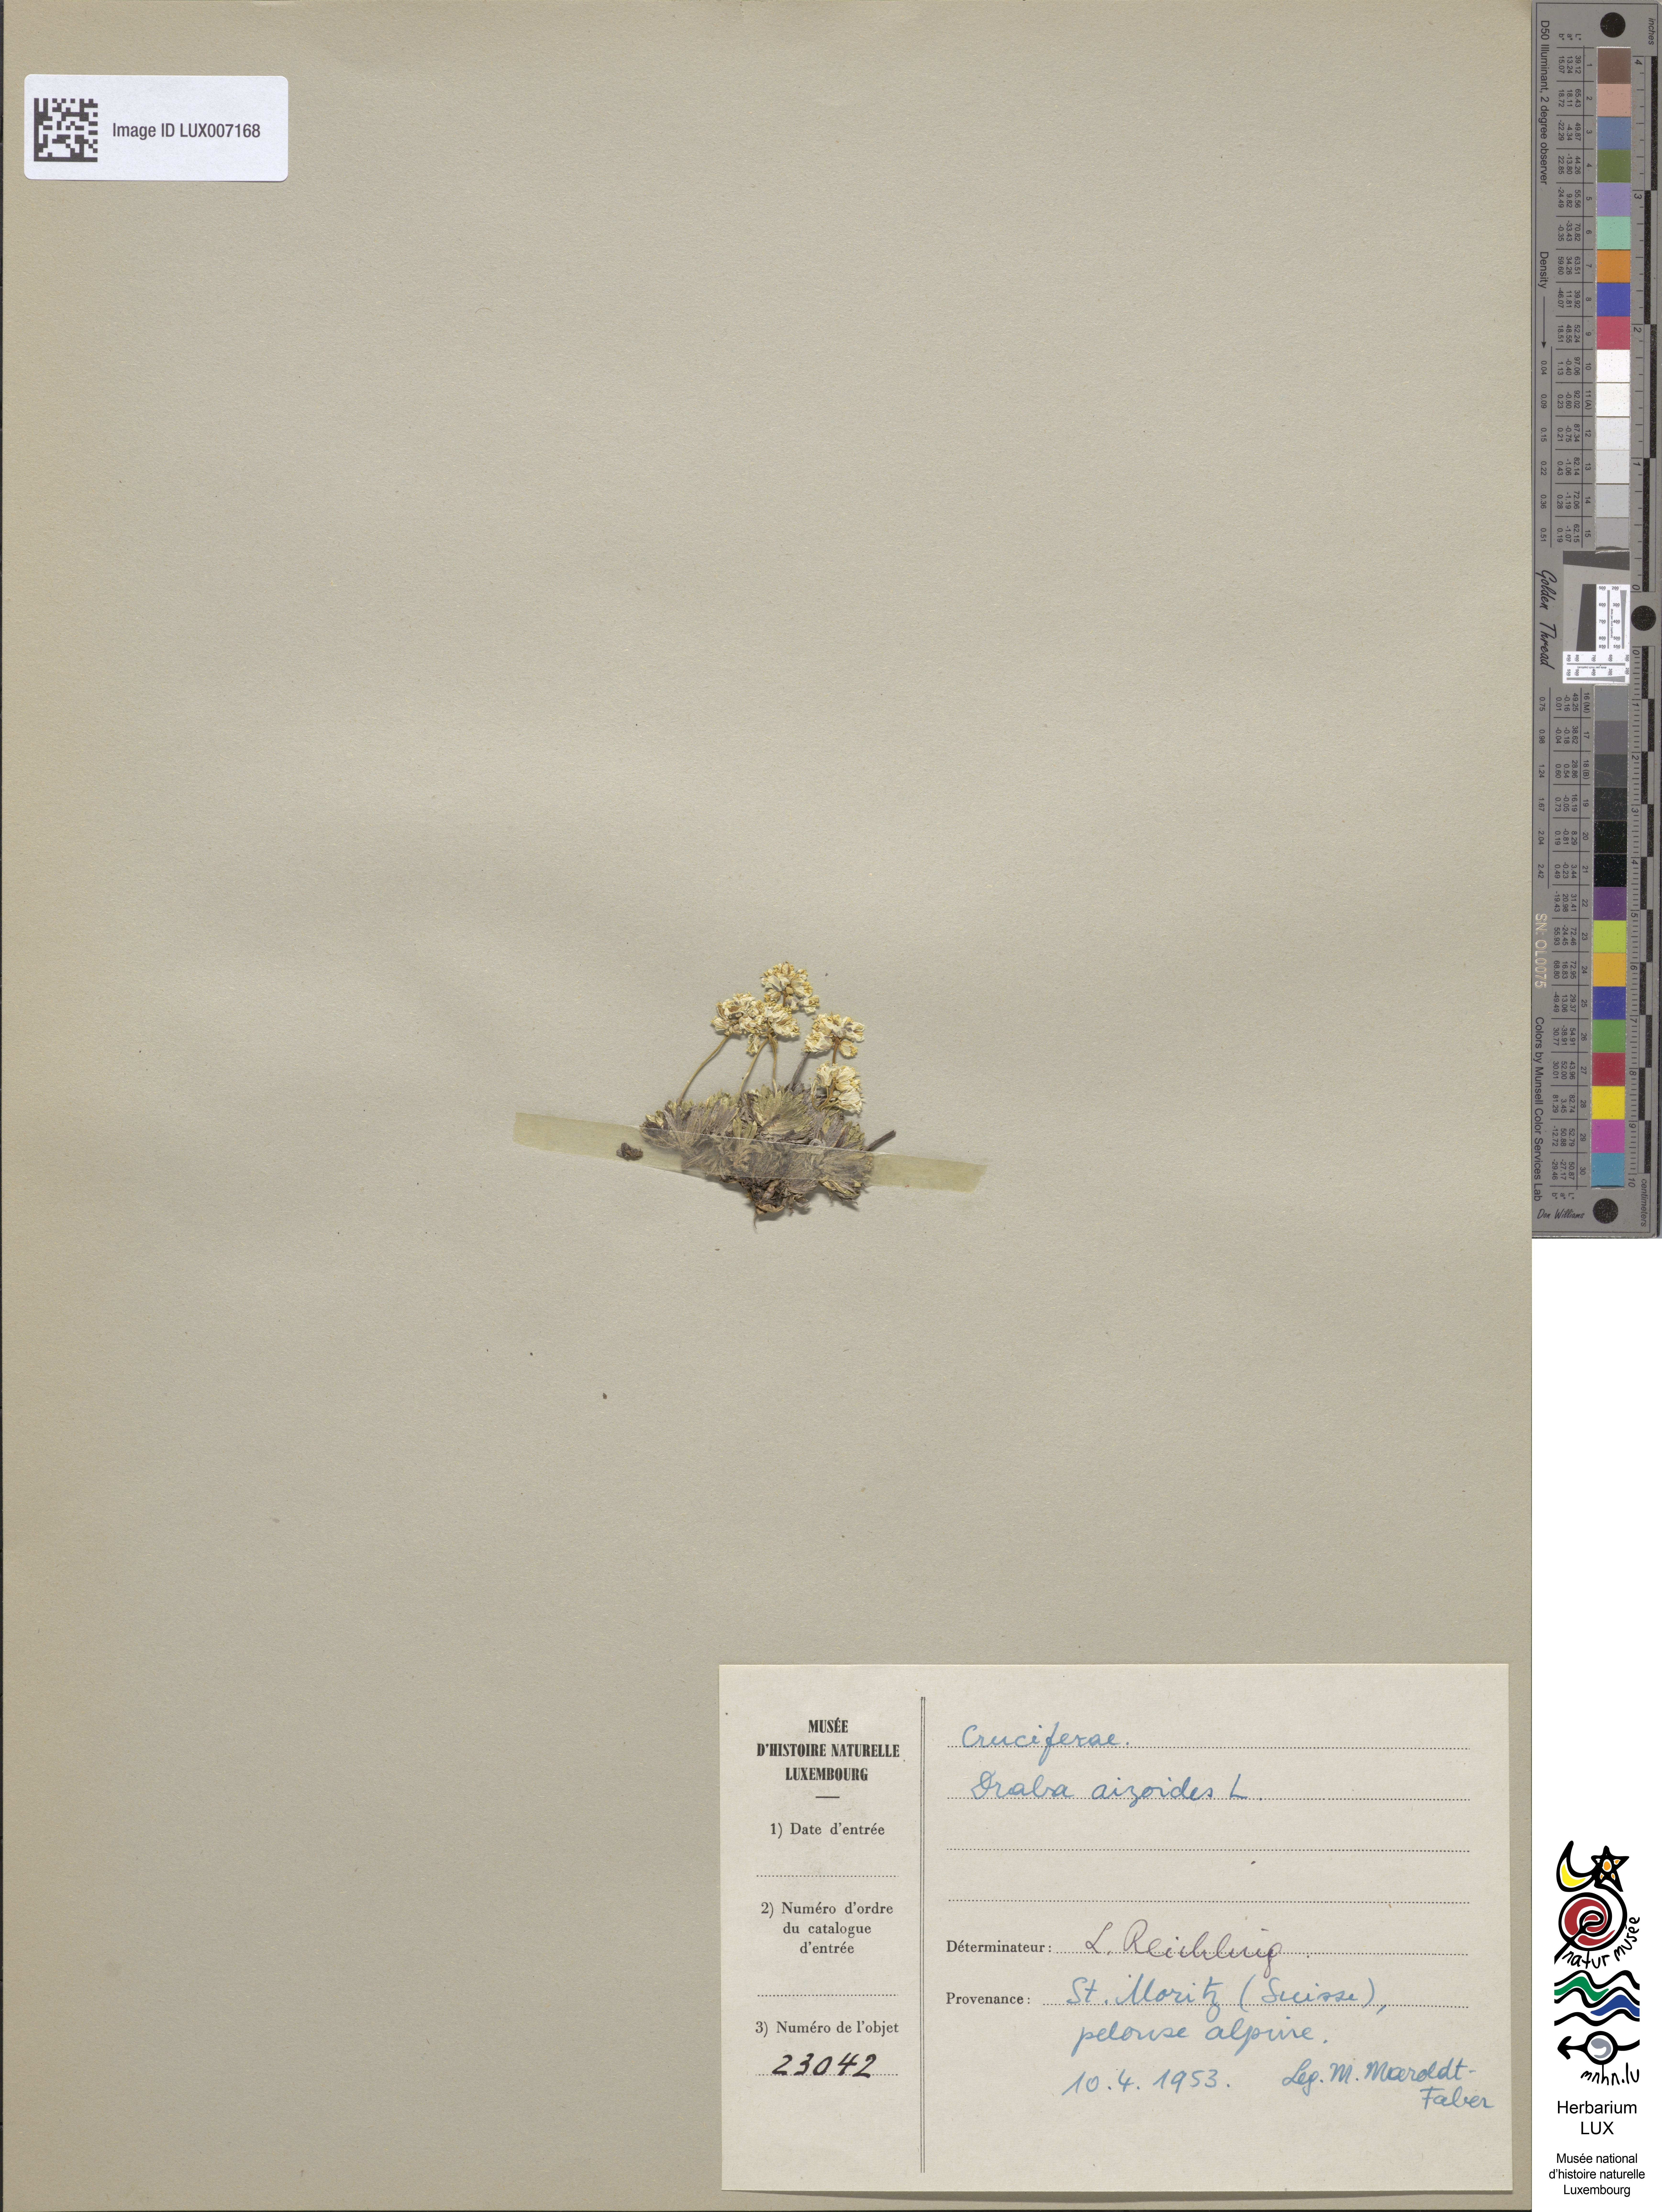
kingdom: Plantae
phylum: Tracheophyta
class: Magnoliopsida
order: Brassicales
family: Brassicaceae
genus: Draba
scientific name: Draba aizoides
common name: Yellow whitlowgrass
